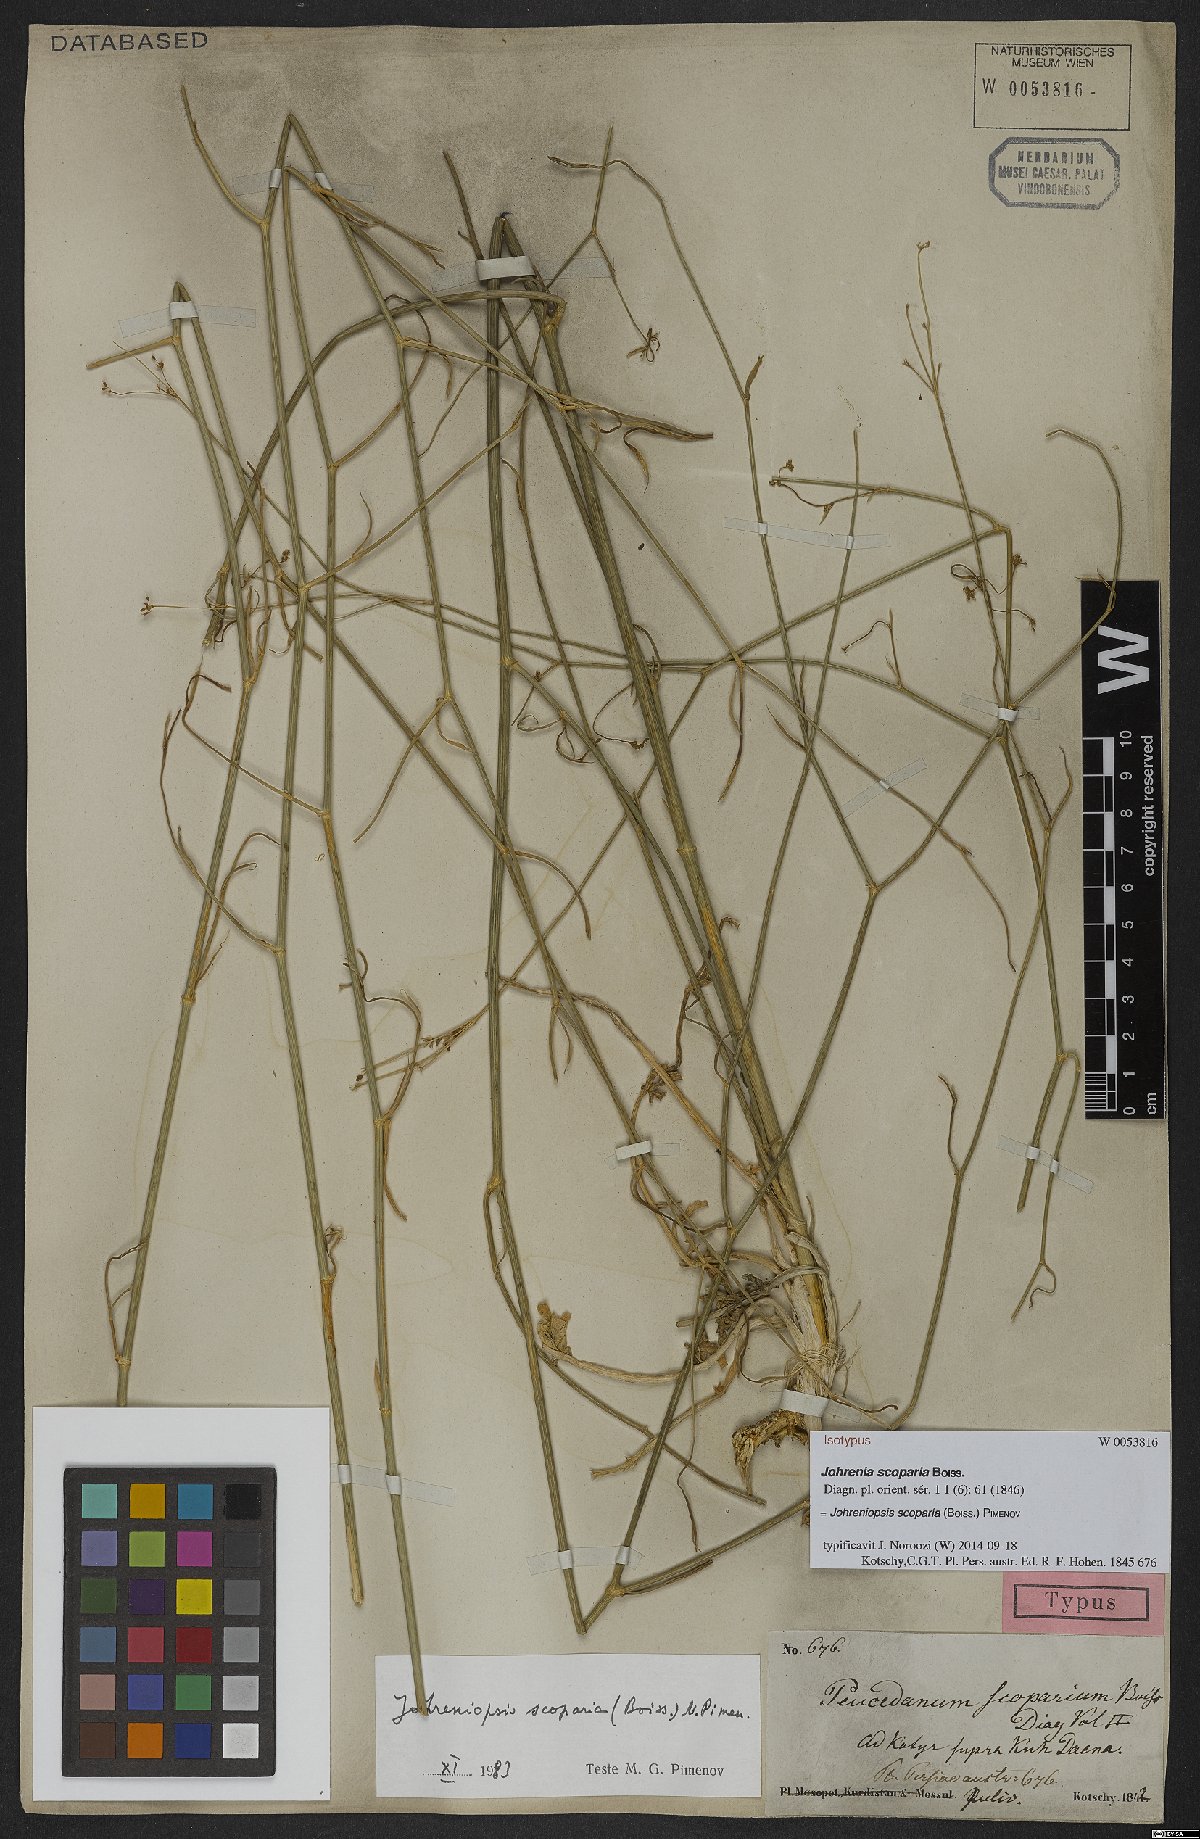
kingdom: Plantae
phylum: Tracheophyta
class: Magnoliopsida
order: Apiales
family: Apiaceae
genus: Dichoropetalum
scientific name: Dichoropetalum scoparium
